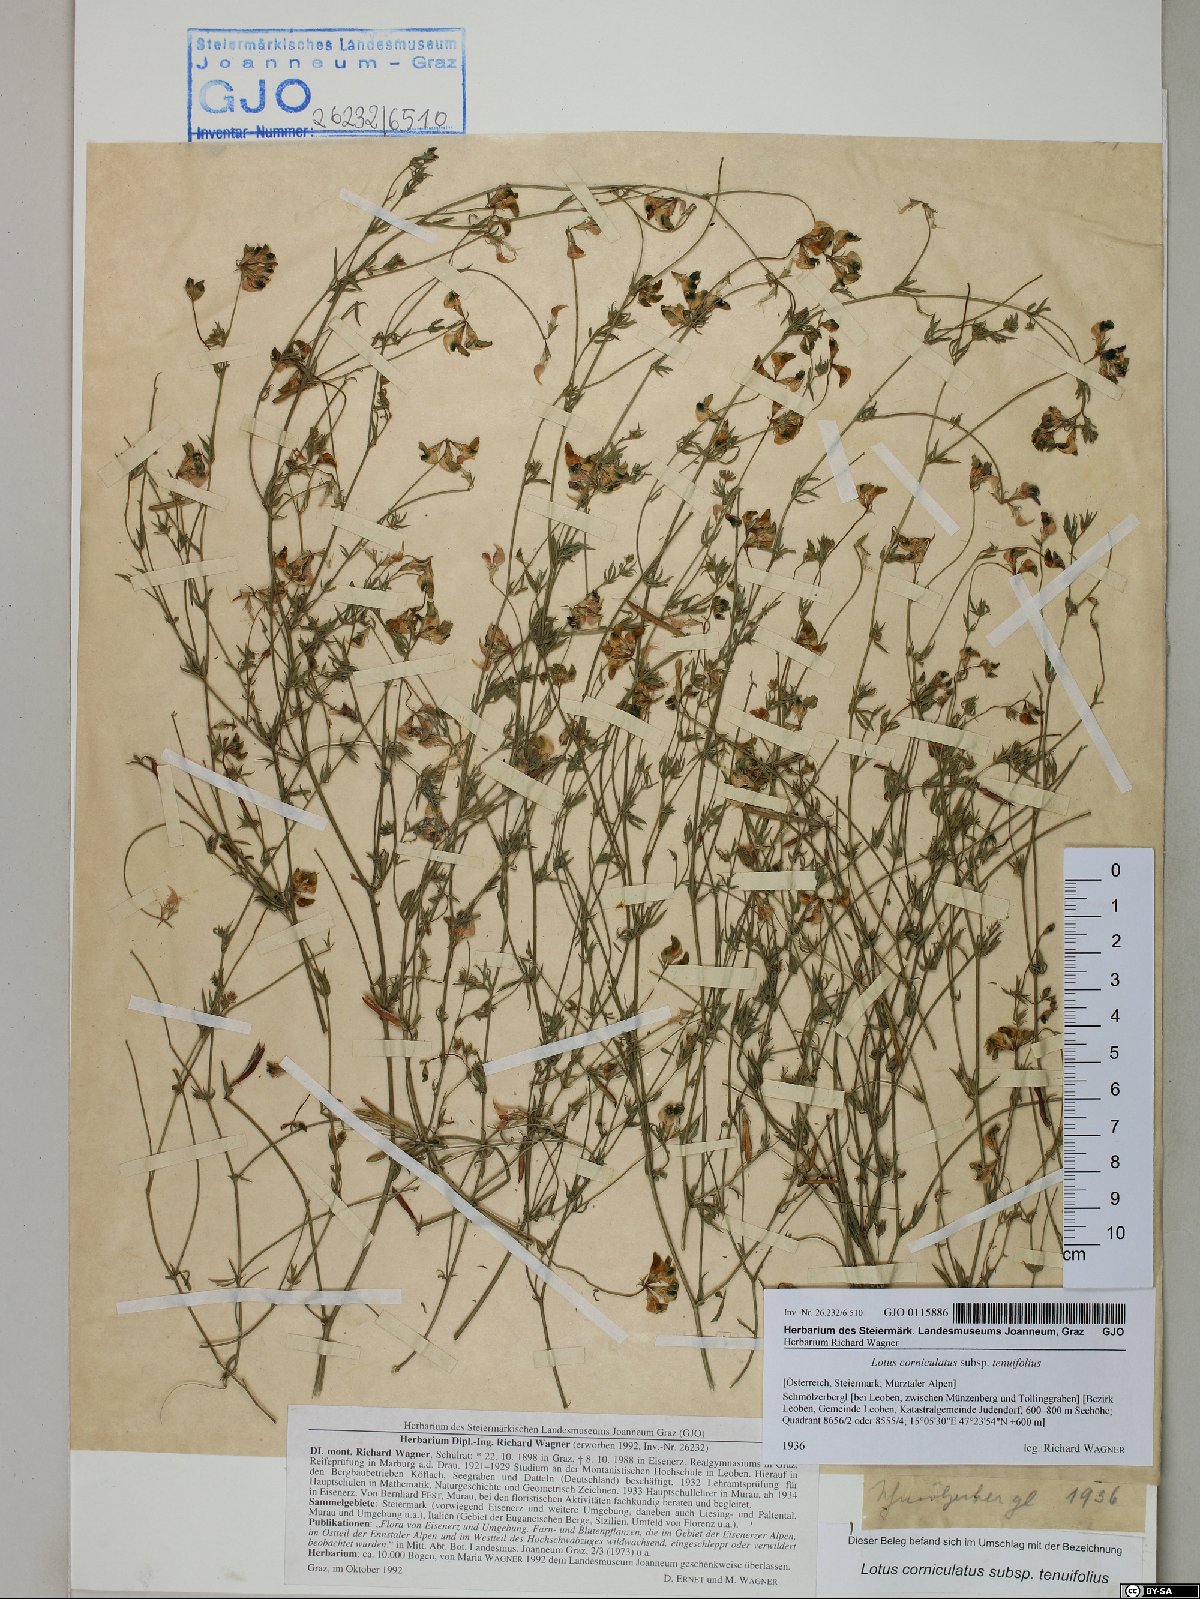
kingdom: Plantae
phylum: Tracheophyta
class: Magnoliopsida
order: Fabales
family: Fabaceae
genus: Lotus
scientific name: Lotus tenuis
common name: Narrow-leaved bird's-foot-trefoil
